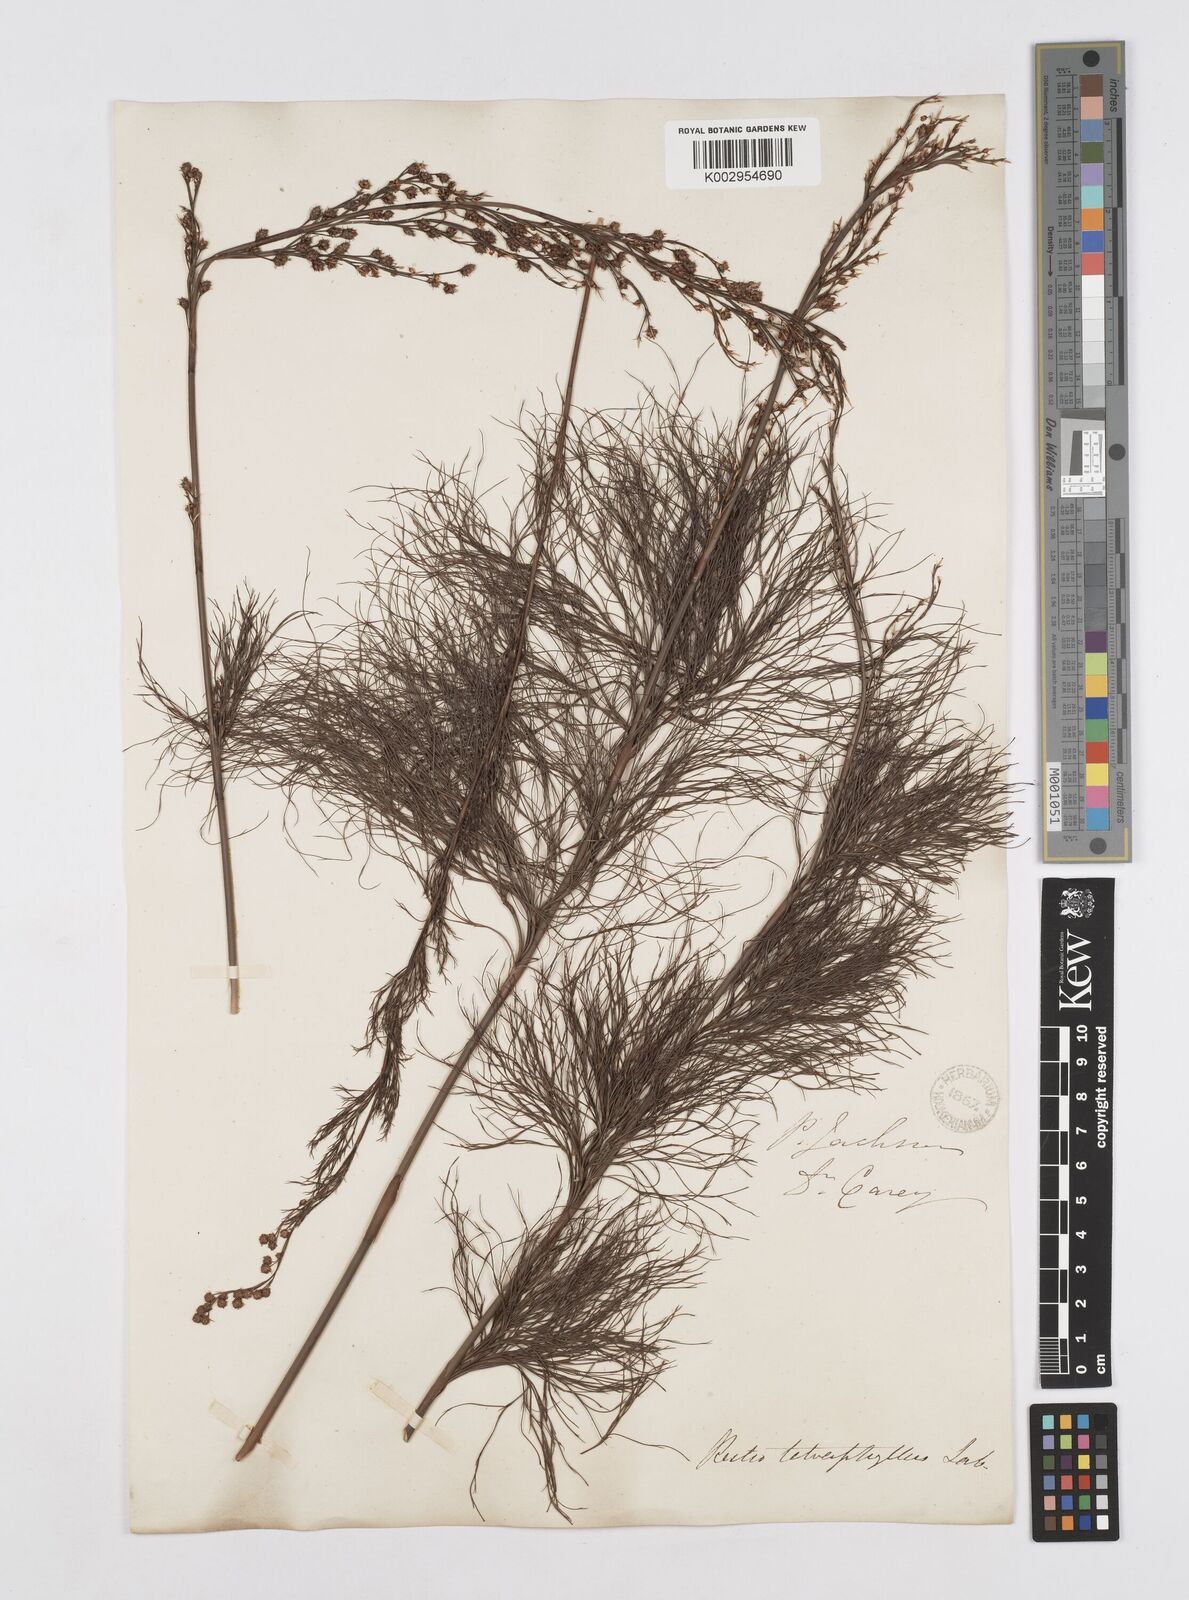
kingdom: Plantae
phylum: Tracheophyta
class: Liliopsida
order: Poales
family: Restionaceae
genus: Baloskion
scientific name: Baloskion tetraphyllum
